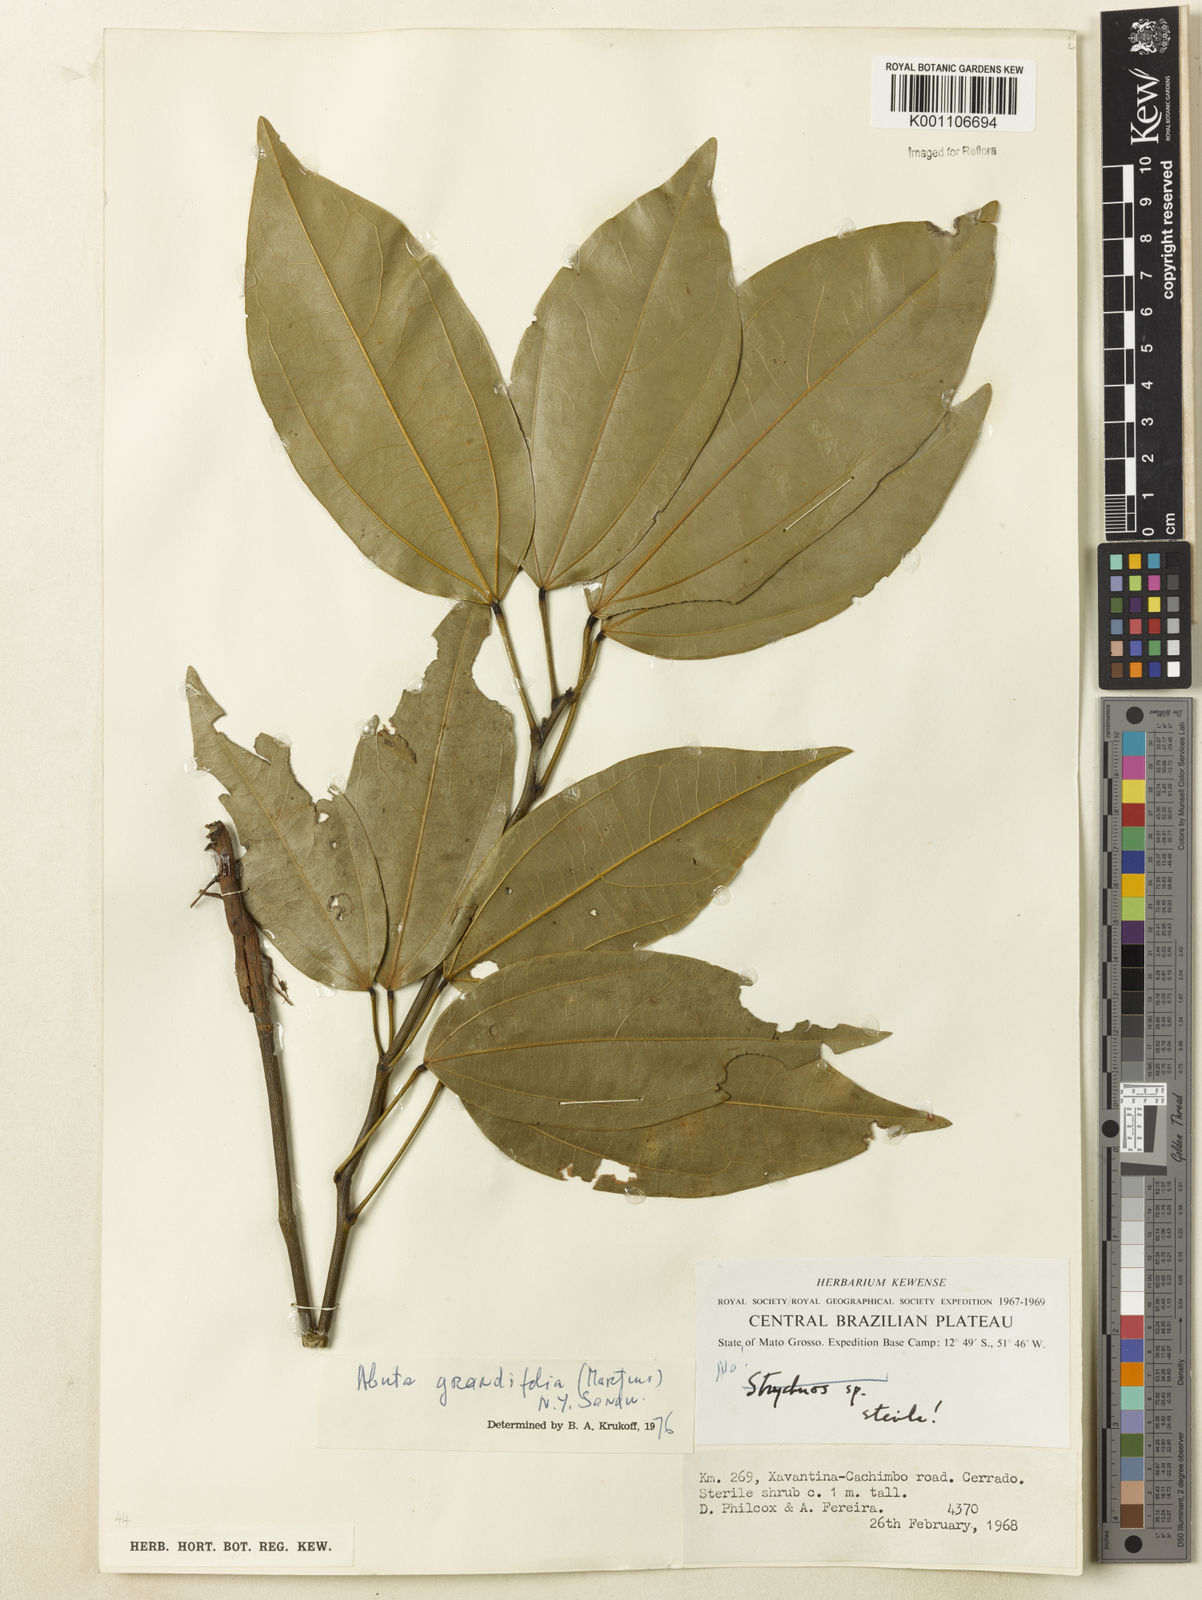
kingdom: Plantae
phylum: Tracheophyta
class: Magnoliopsida
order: Ranunculales
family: Menispermaceae
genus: Abuta
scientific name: Abuta grandifolia
